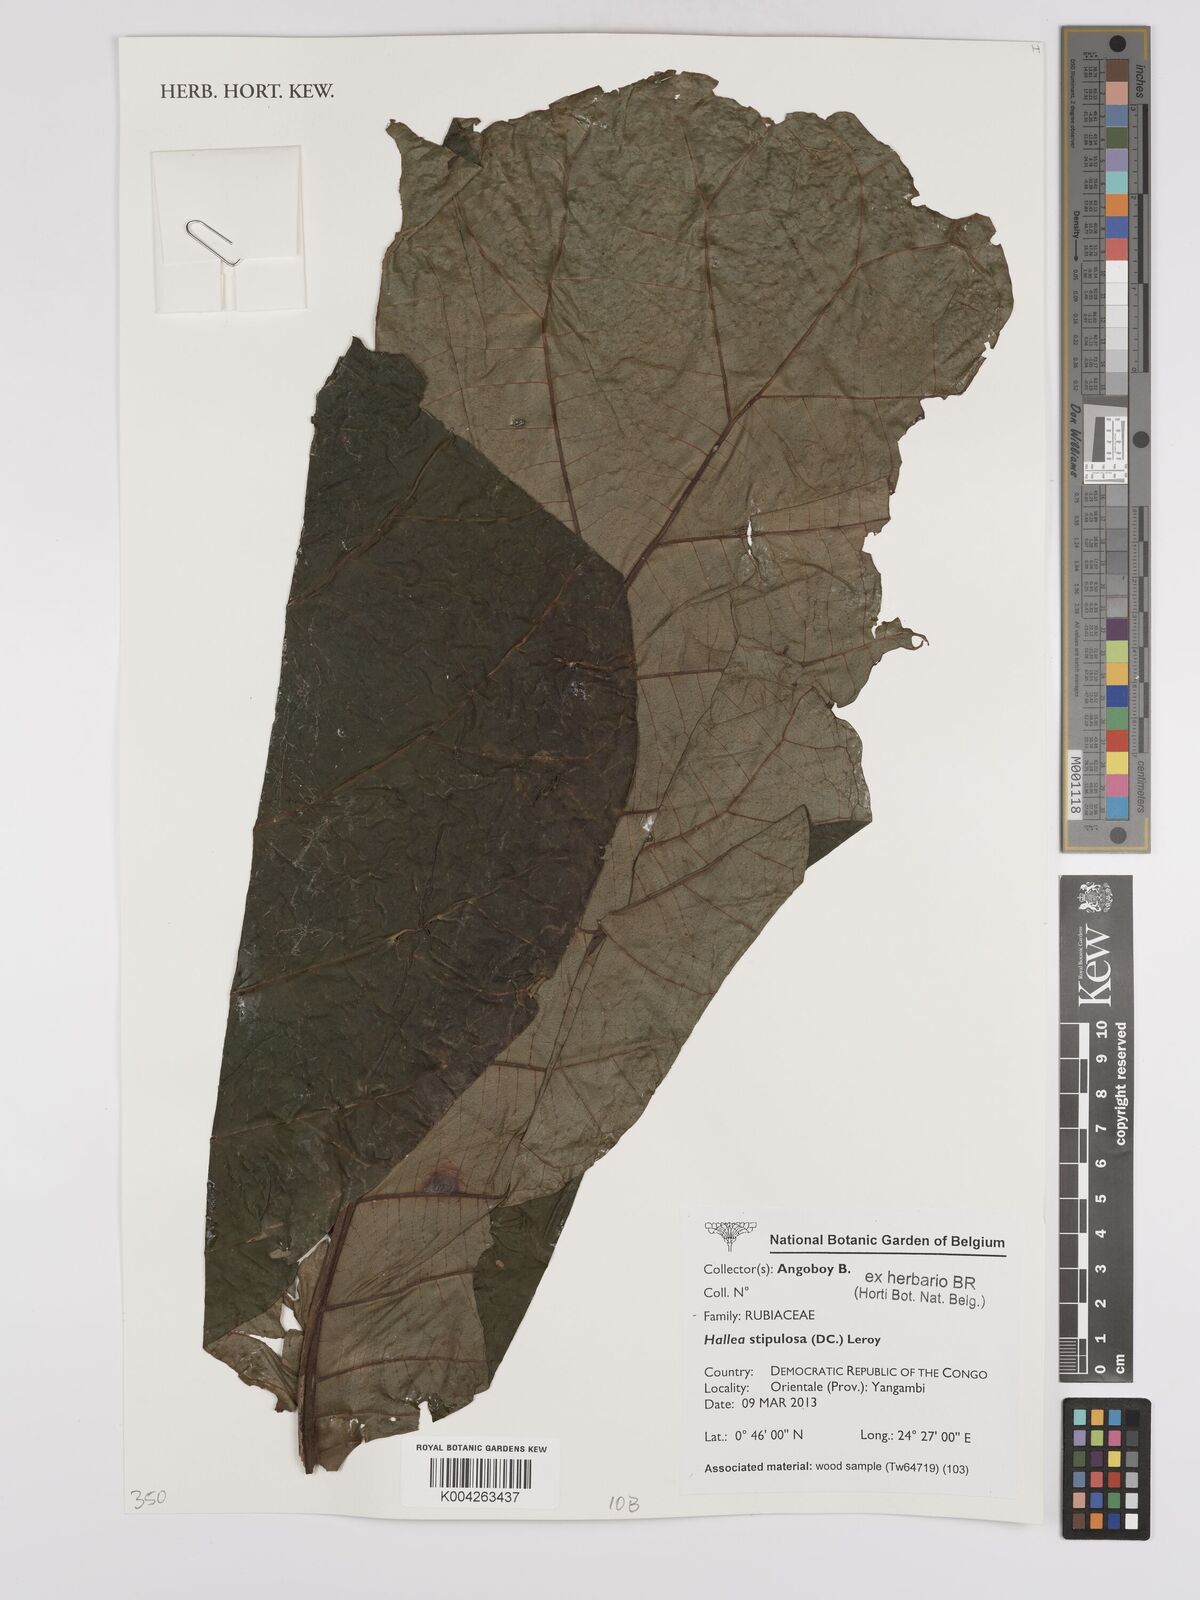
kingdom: Plantae
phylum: Tracheophyta
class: Magnoliopsida
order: Gentianales
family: Rubiaceae
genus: Mitragyna
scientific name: Mitragyna stipulosa
